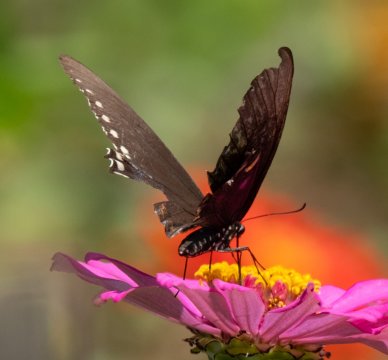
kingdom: Animalia
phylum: Arthropoda
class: Insecta
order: Lepidoptera
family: Papilionidae
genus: Pterourus
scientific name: Pterourus troilus
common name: Spicebush Swallowtail
